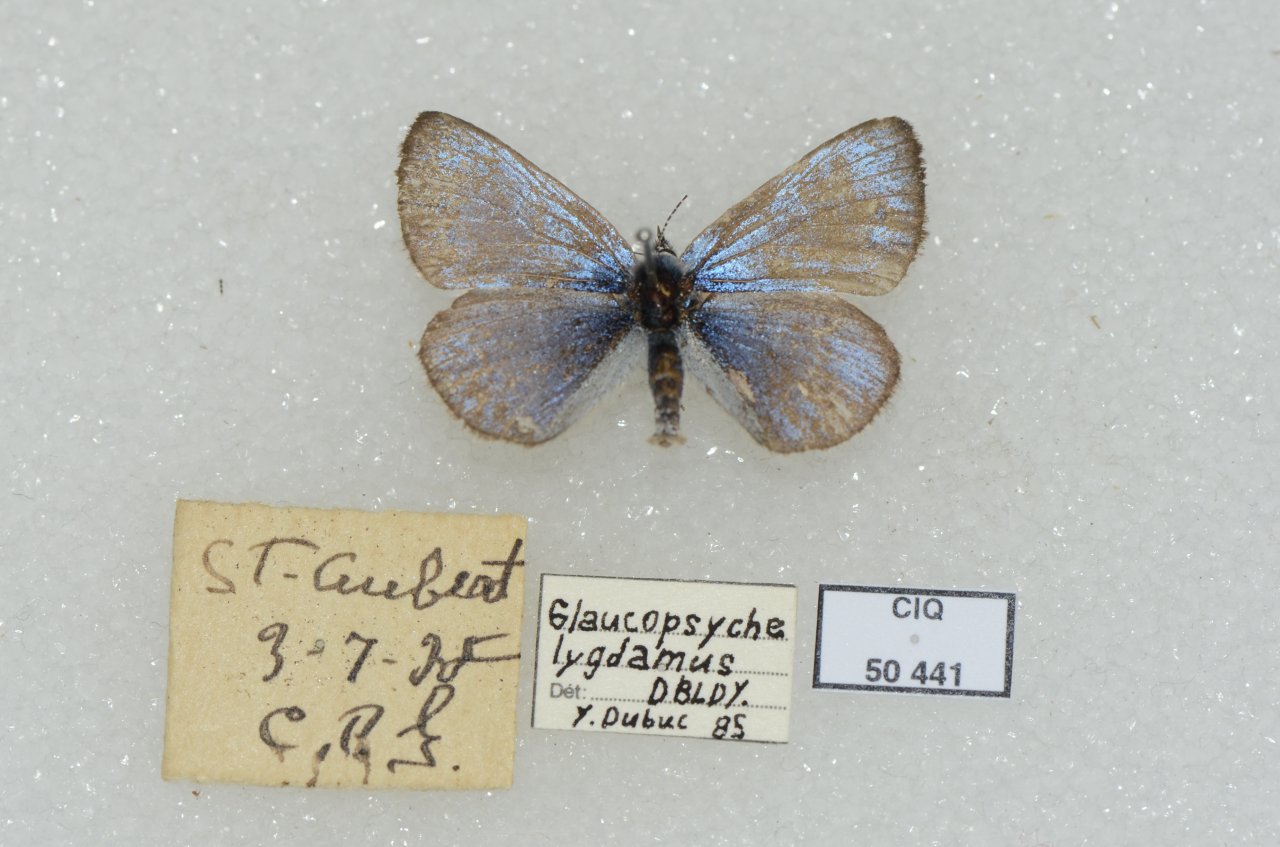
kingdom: Animalia
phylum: Arthropoda
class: Insecta
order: Lepidoptera
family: Lycaenidae
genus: Glaucopsyche
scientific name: Glaucopsyche lygdamus
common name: Silvery Blue
